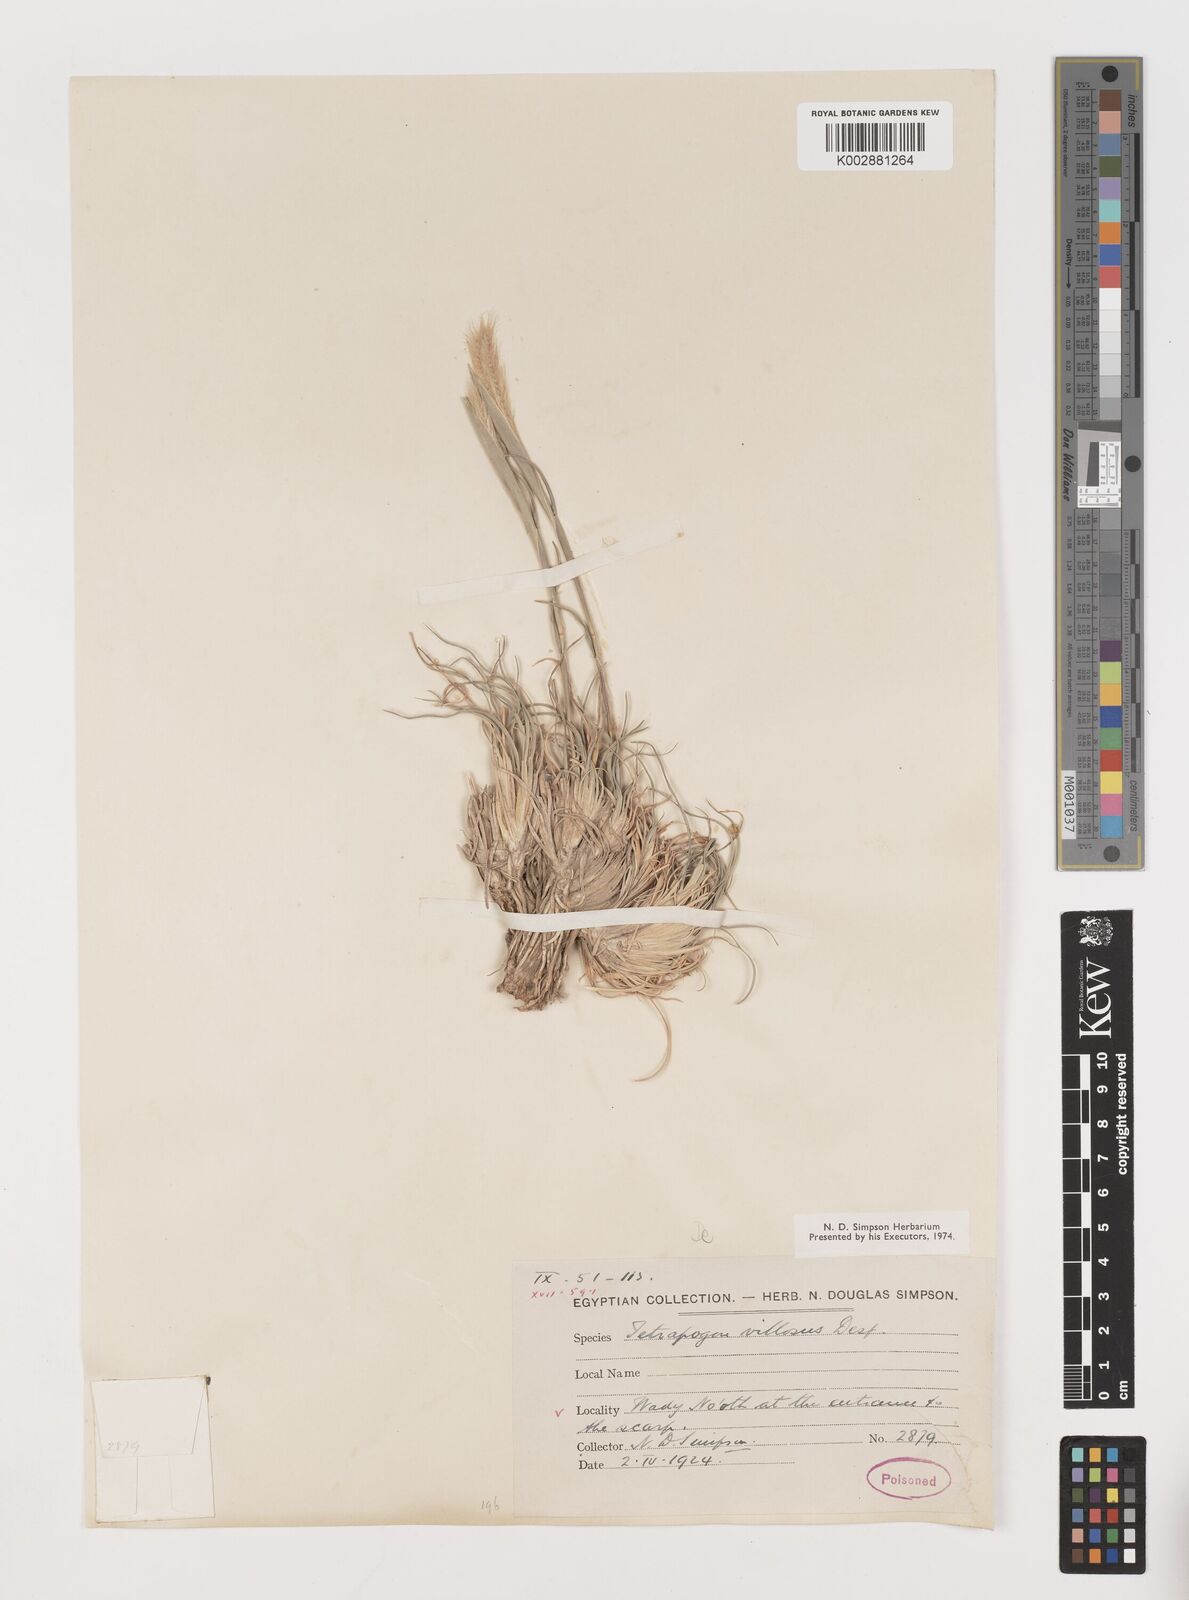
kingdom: Plantae
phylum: Tracheophyta
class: Liliopsida
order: Poales
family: Poaceae
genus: Tetrapogon
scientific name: Tetrapogon villosus
